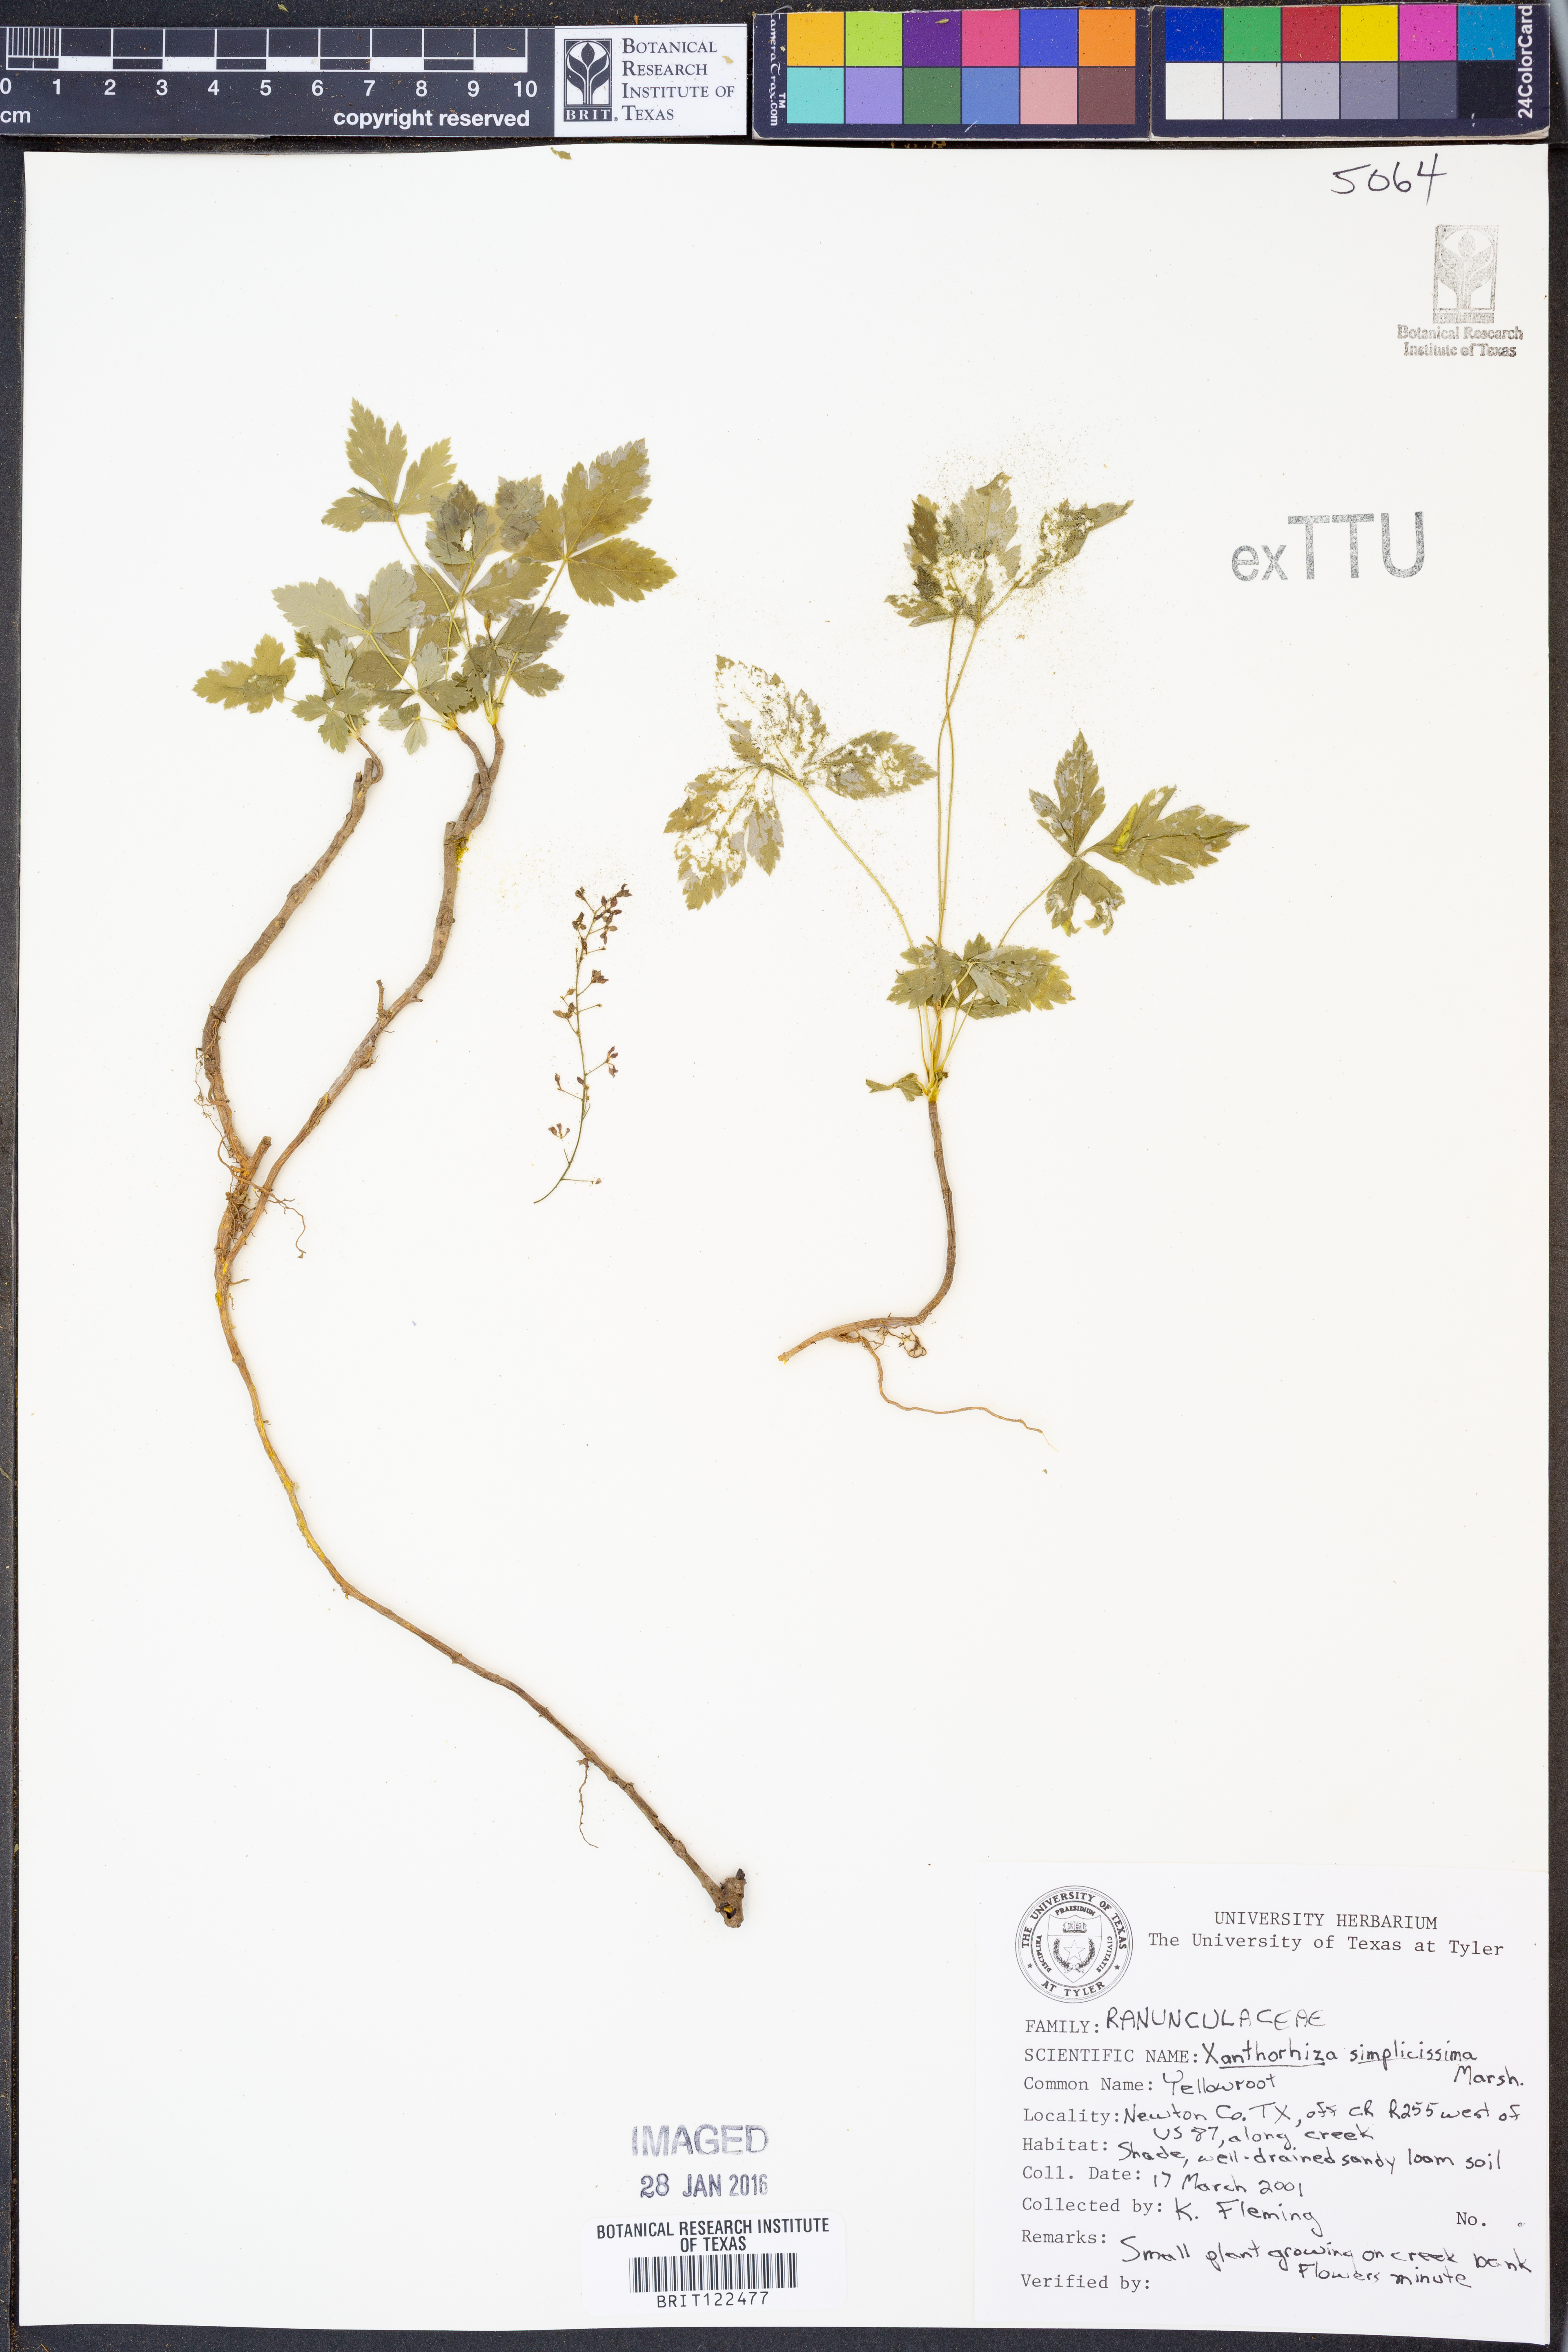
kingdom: Plantae
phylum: Tracheophyta
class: Magnoliopsida
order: Ranunculales
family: Ranunculaceae
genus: Xanthorhiza
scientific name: Xanthorhiza simplicissima
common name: Yellowroot
